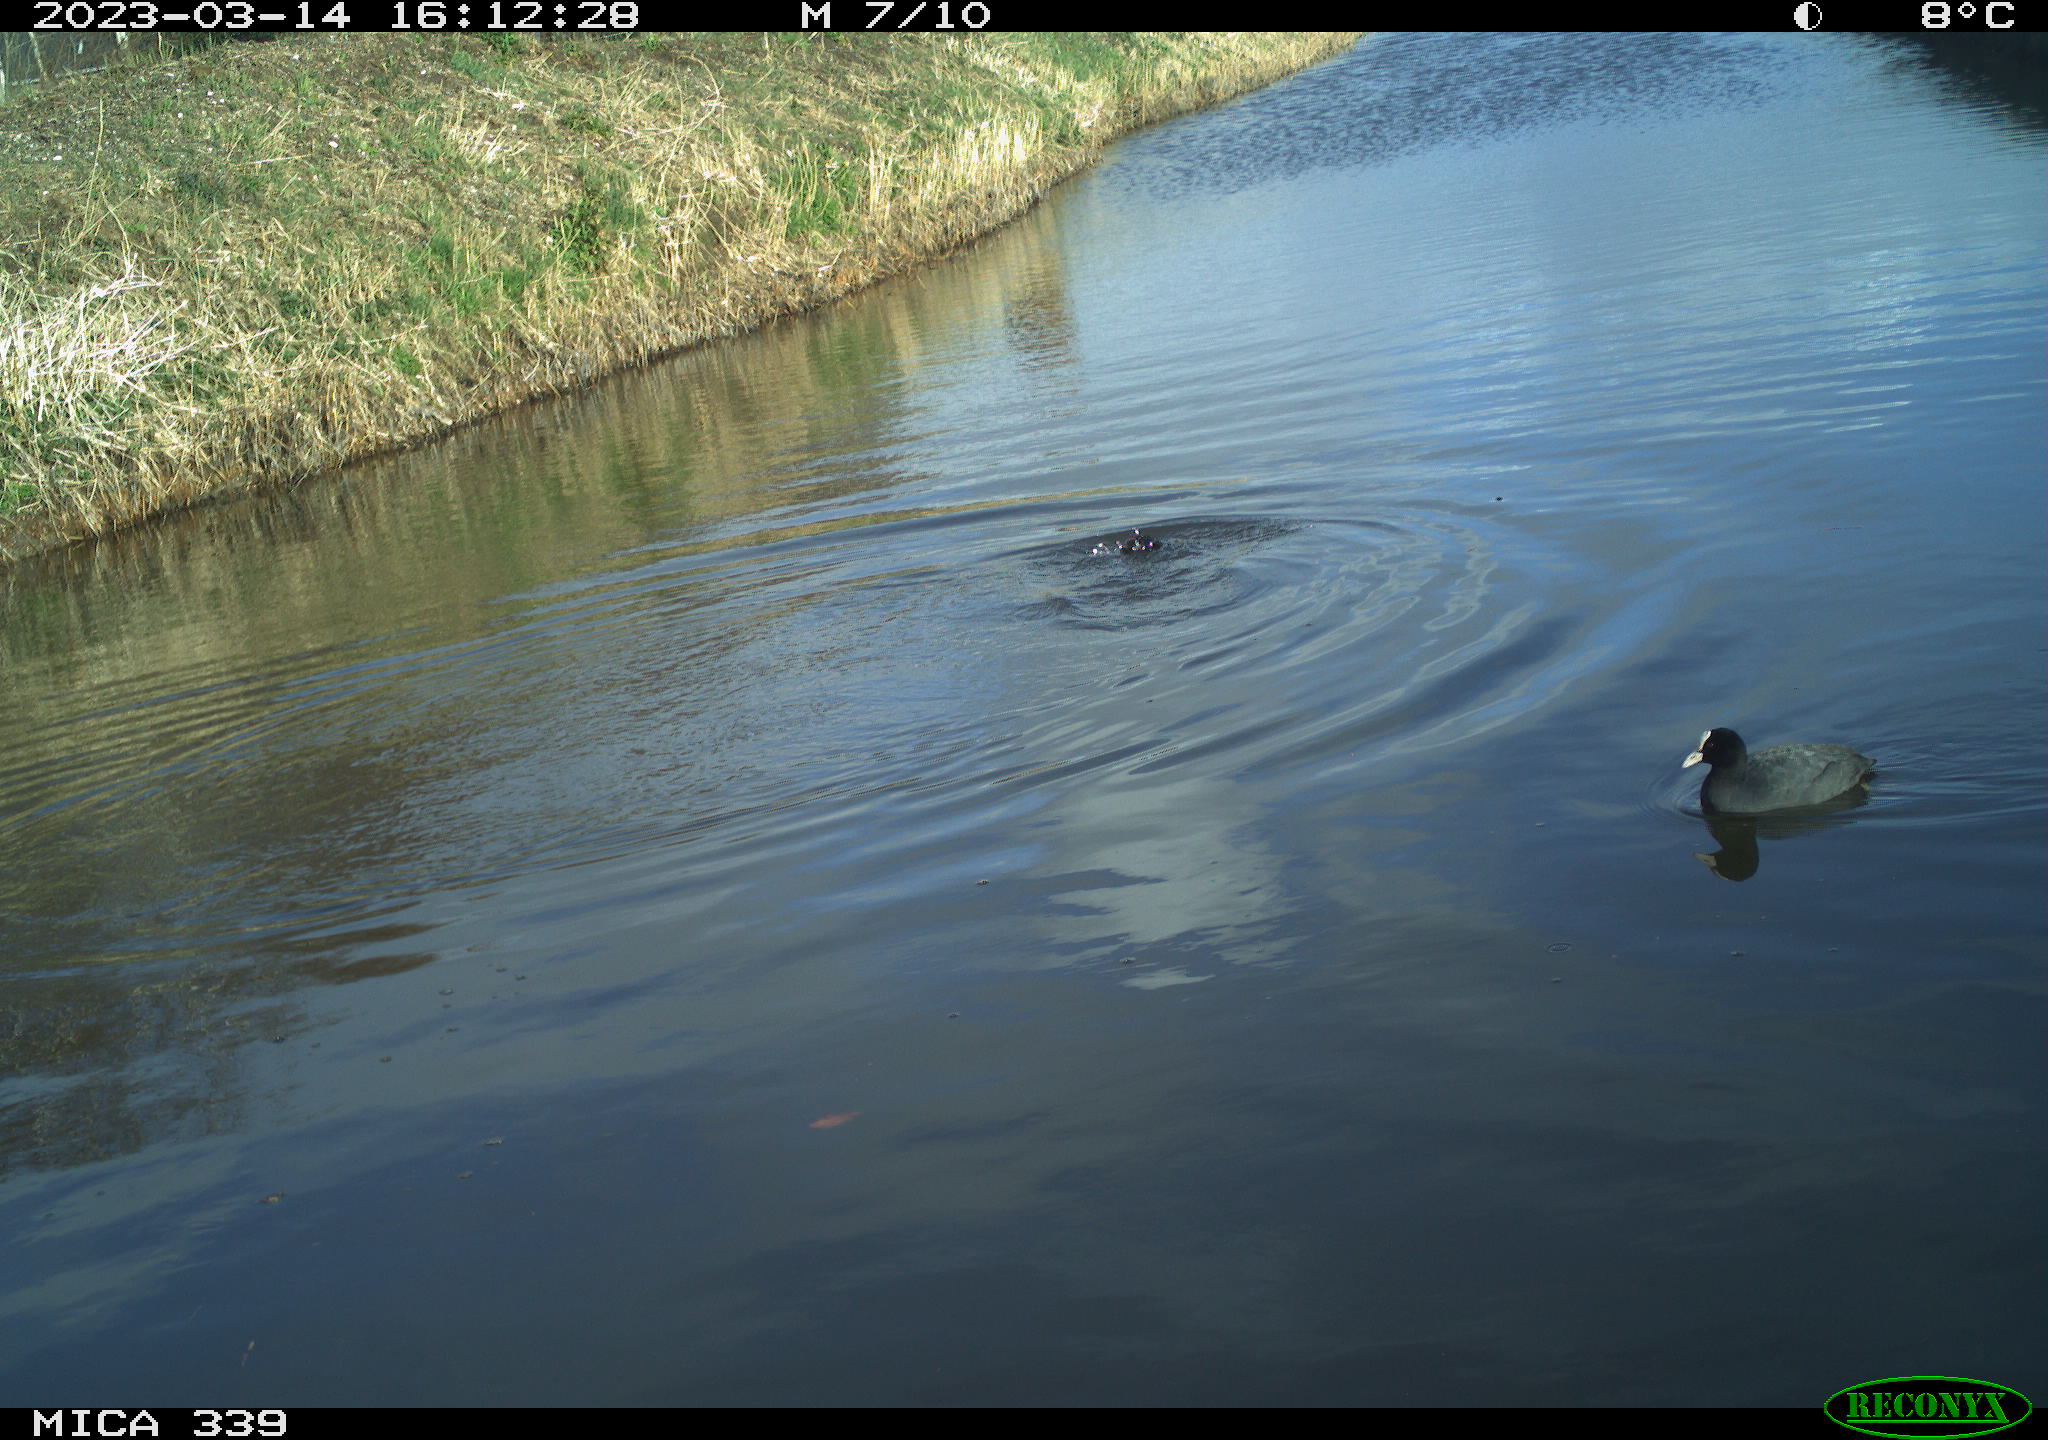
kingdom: Animalia
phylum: Chordata
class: Aves
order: Gruiformes
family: Rallidae
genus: Gallinula
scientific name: Gallinula chloropus
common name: Common moorhen
